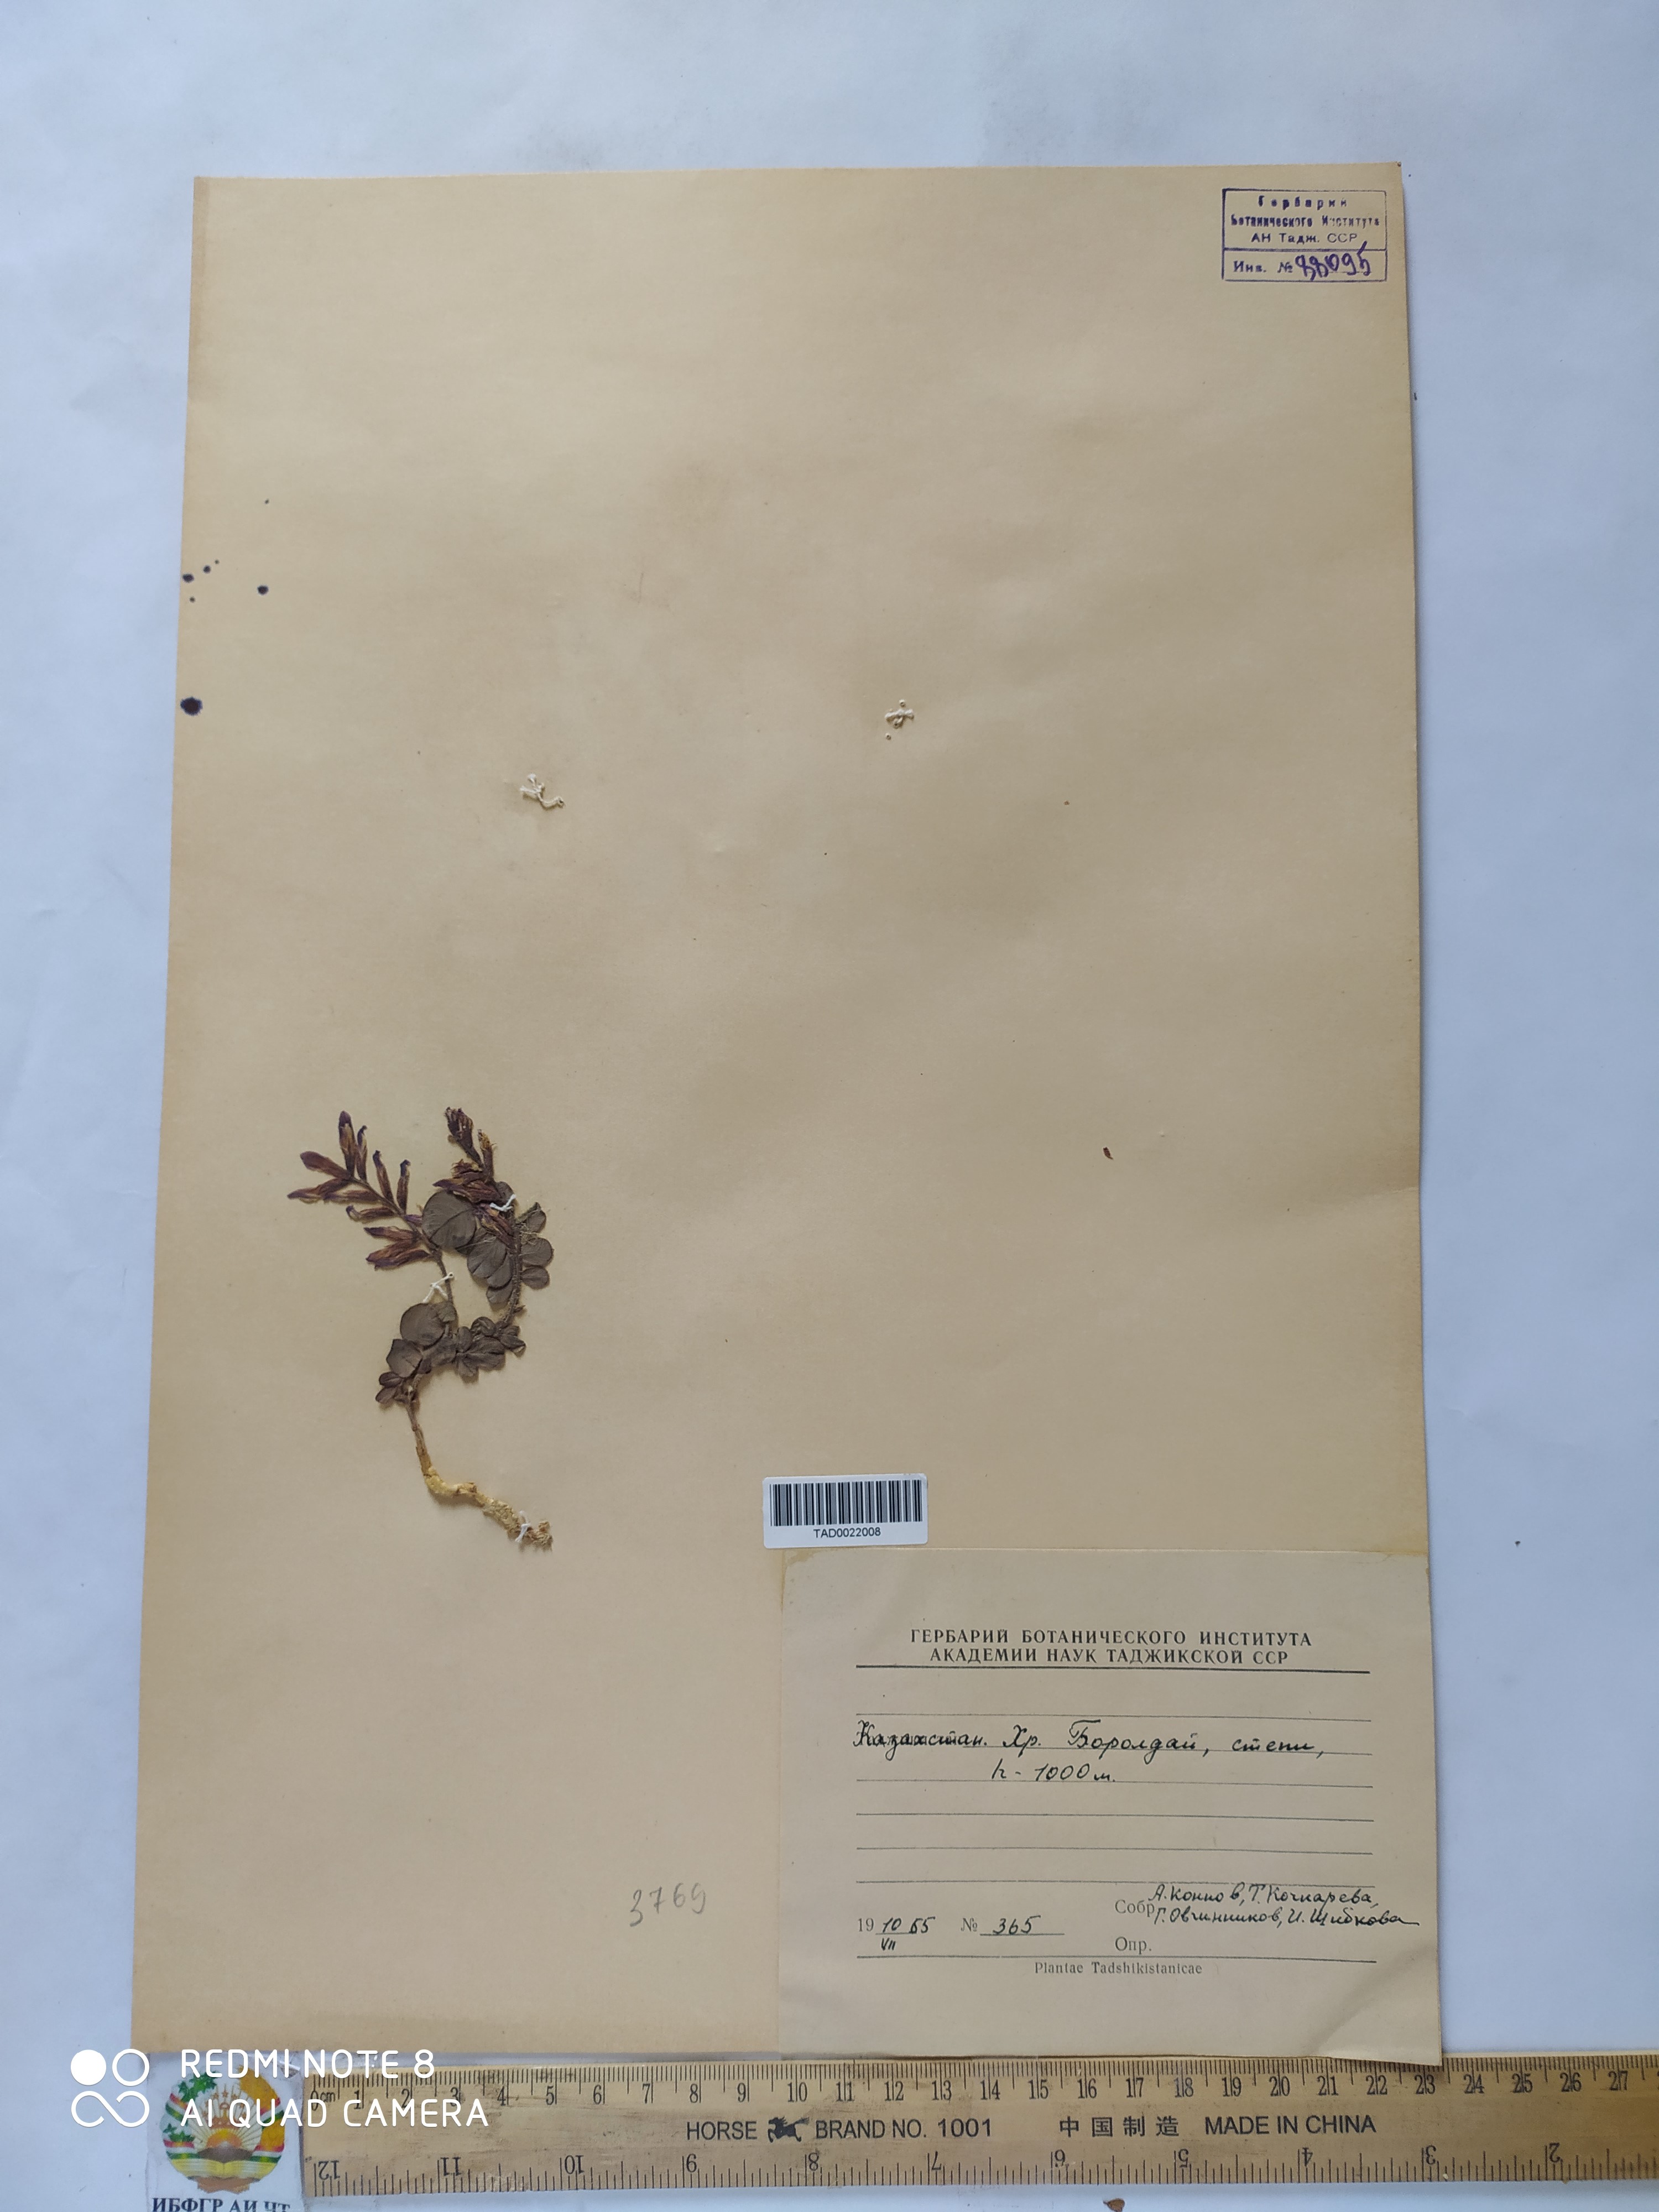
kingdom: Plantae
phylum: Tracheophyta
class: Magnoliopsida
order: Fabales
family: Fabaceae
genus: Glycyrrhiza
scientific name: Glycyrrhiza aspera
